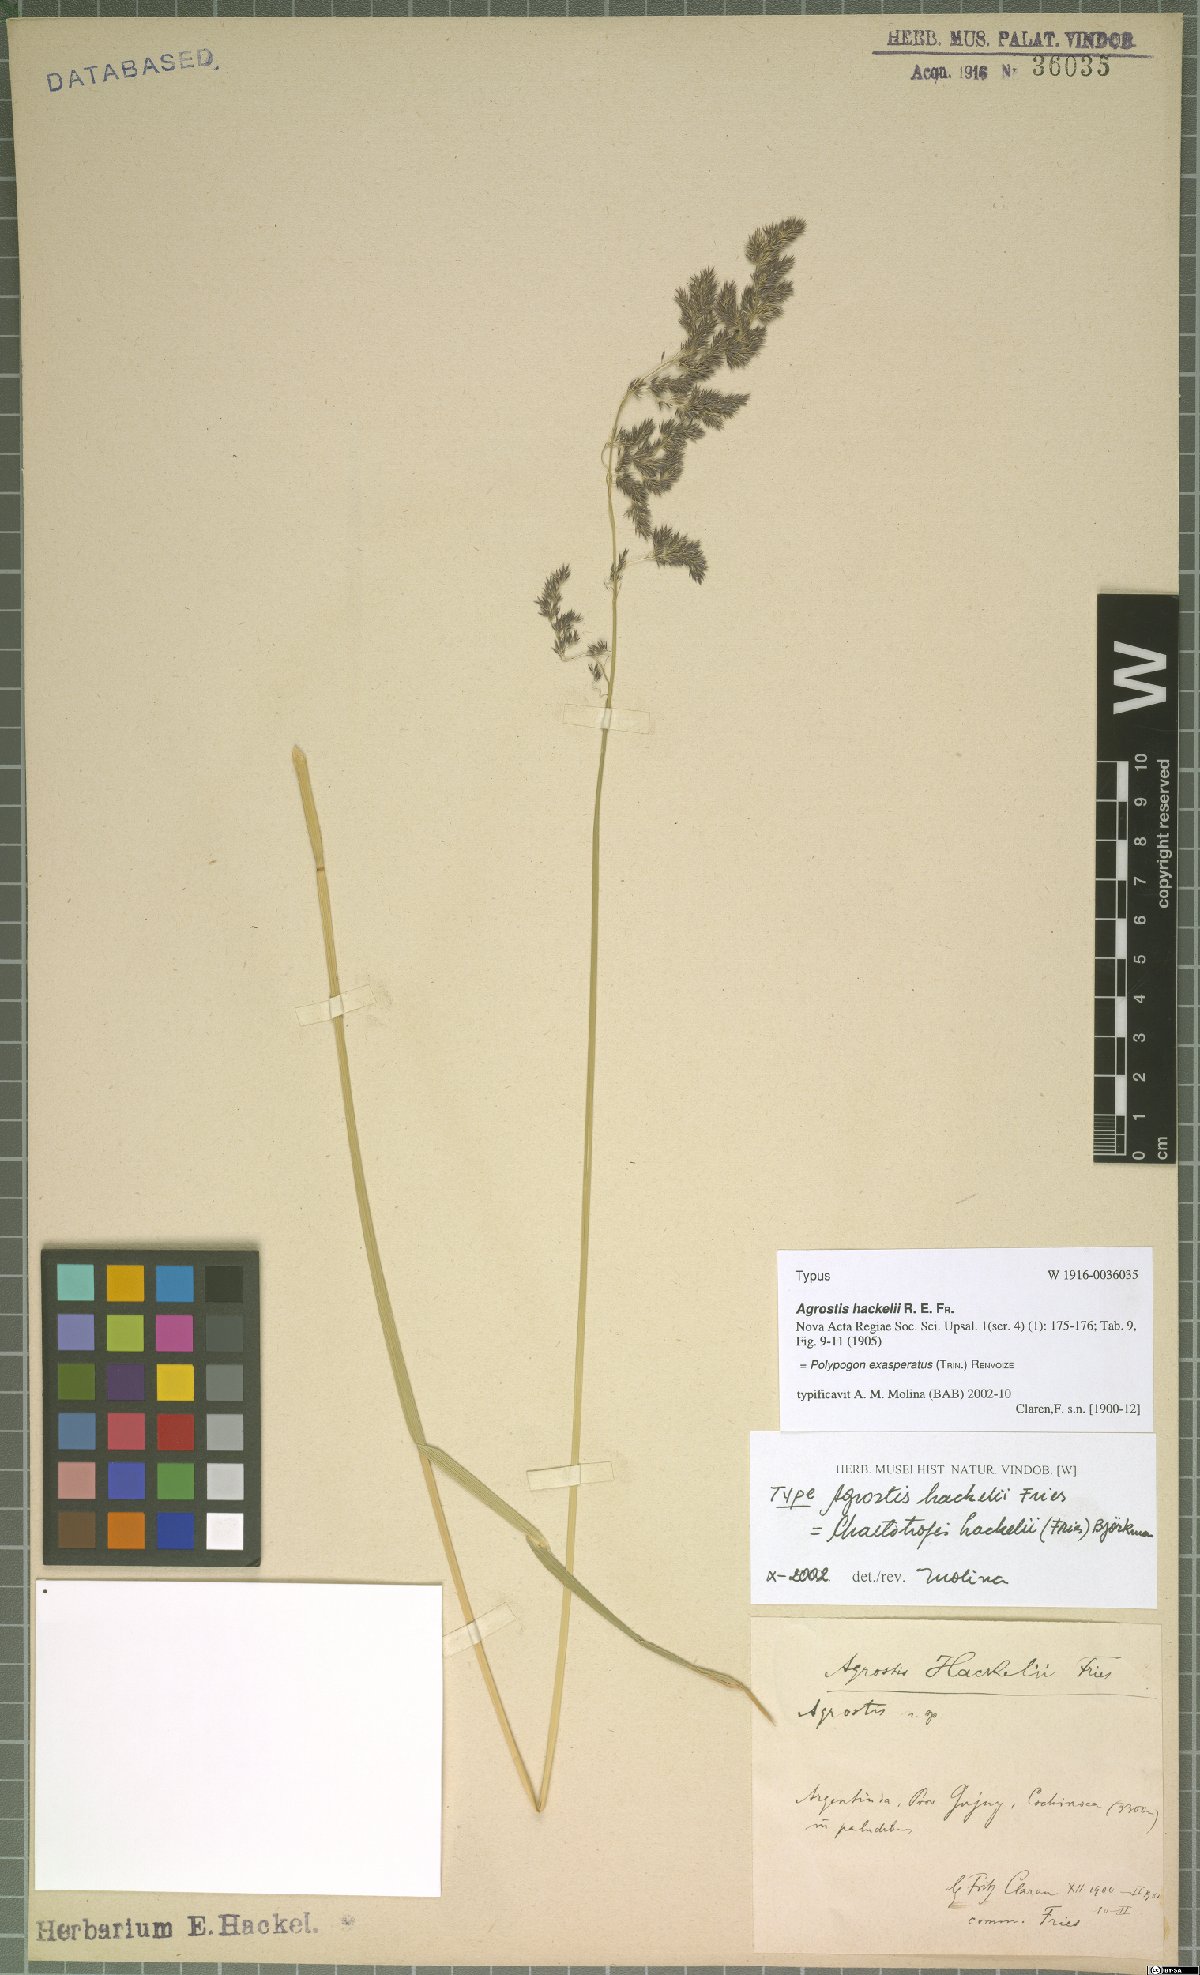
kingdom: Plantae
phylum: Tracheophyta
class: Liliopsida
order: Poales
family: Poaceae
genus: Polypogon
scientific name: Polypogon exasperatus
